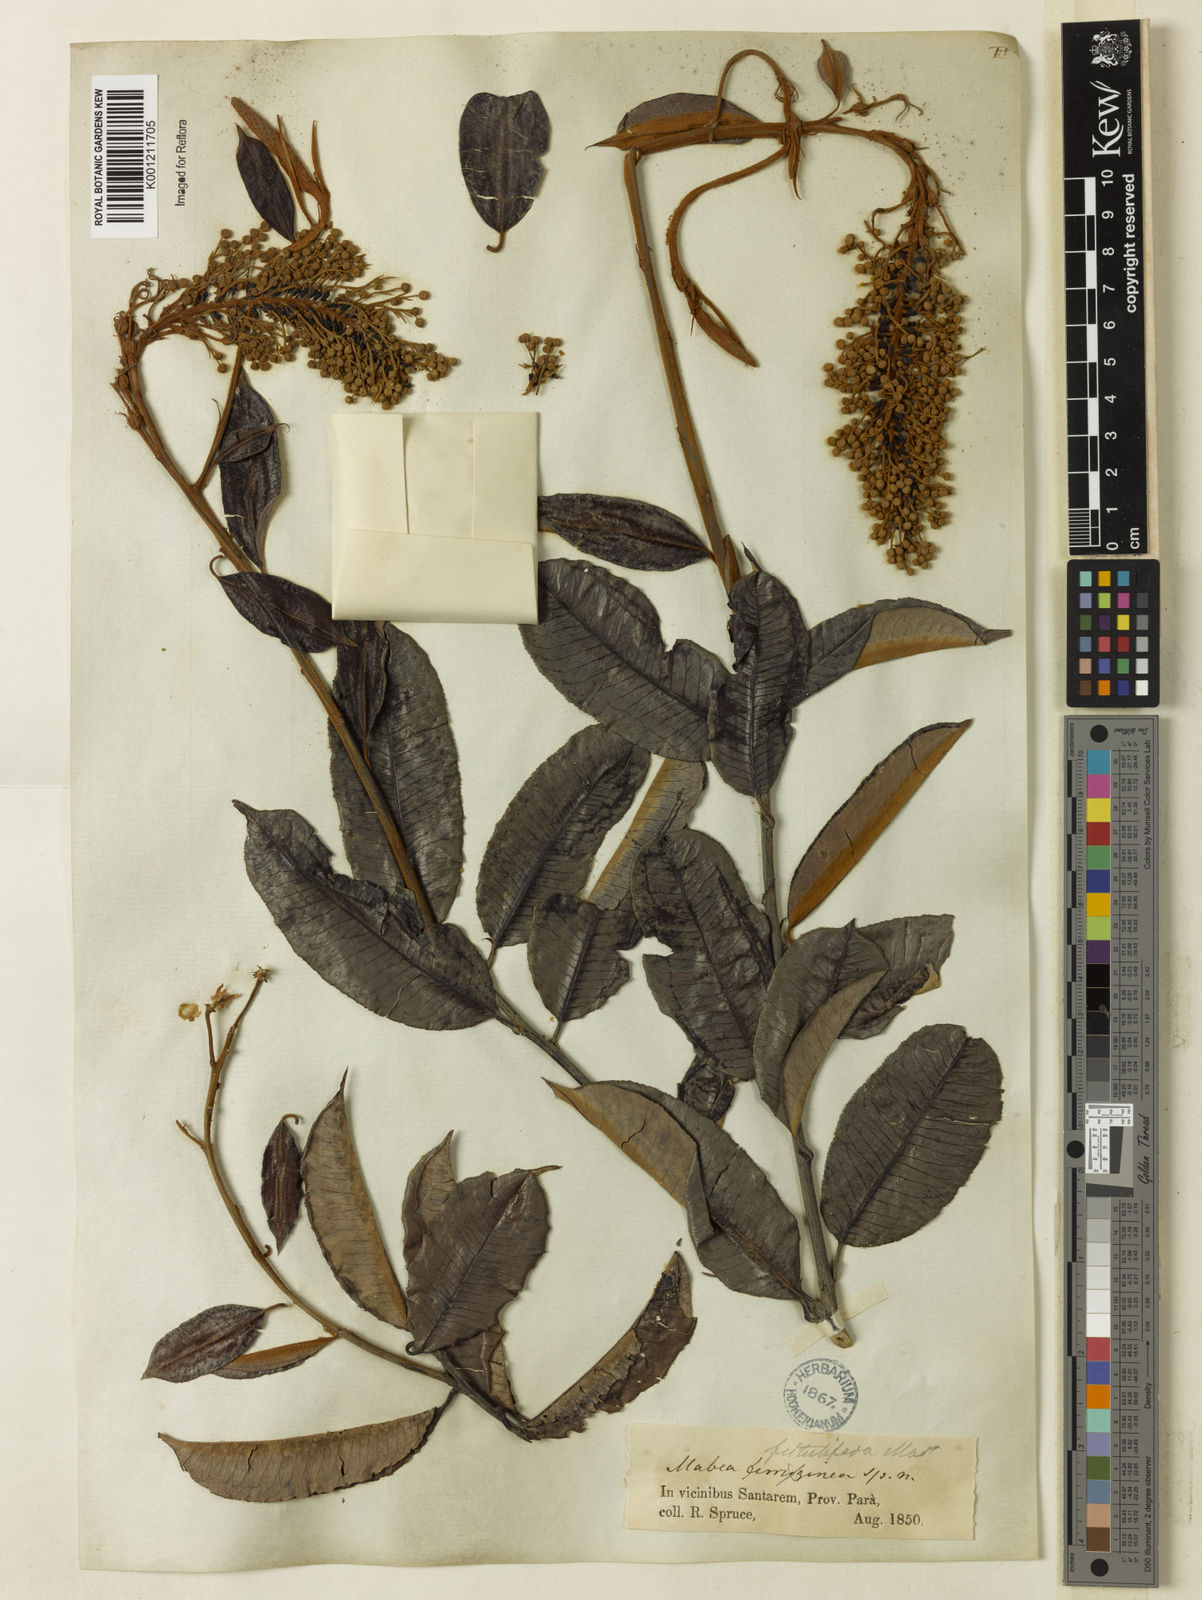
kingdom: Plantae
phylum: Tracheophyta
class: Magnoliopsida
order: Malpighiales
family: Euphorbiaceae
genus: Mabea
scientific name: Mabea fistulifera
